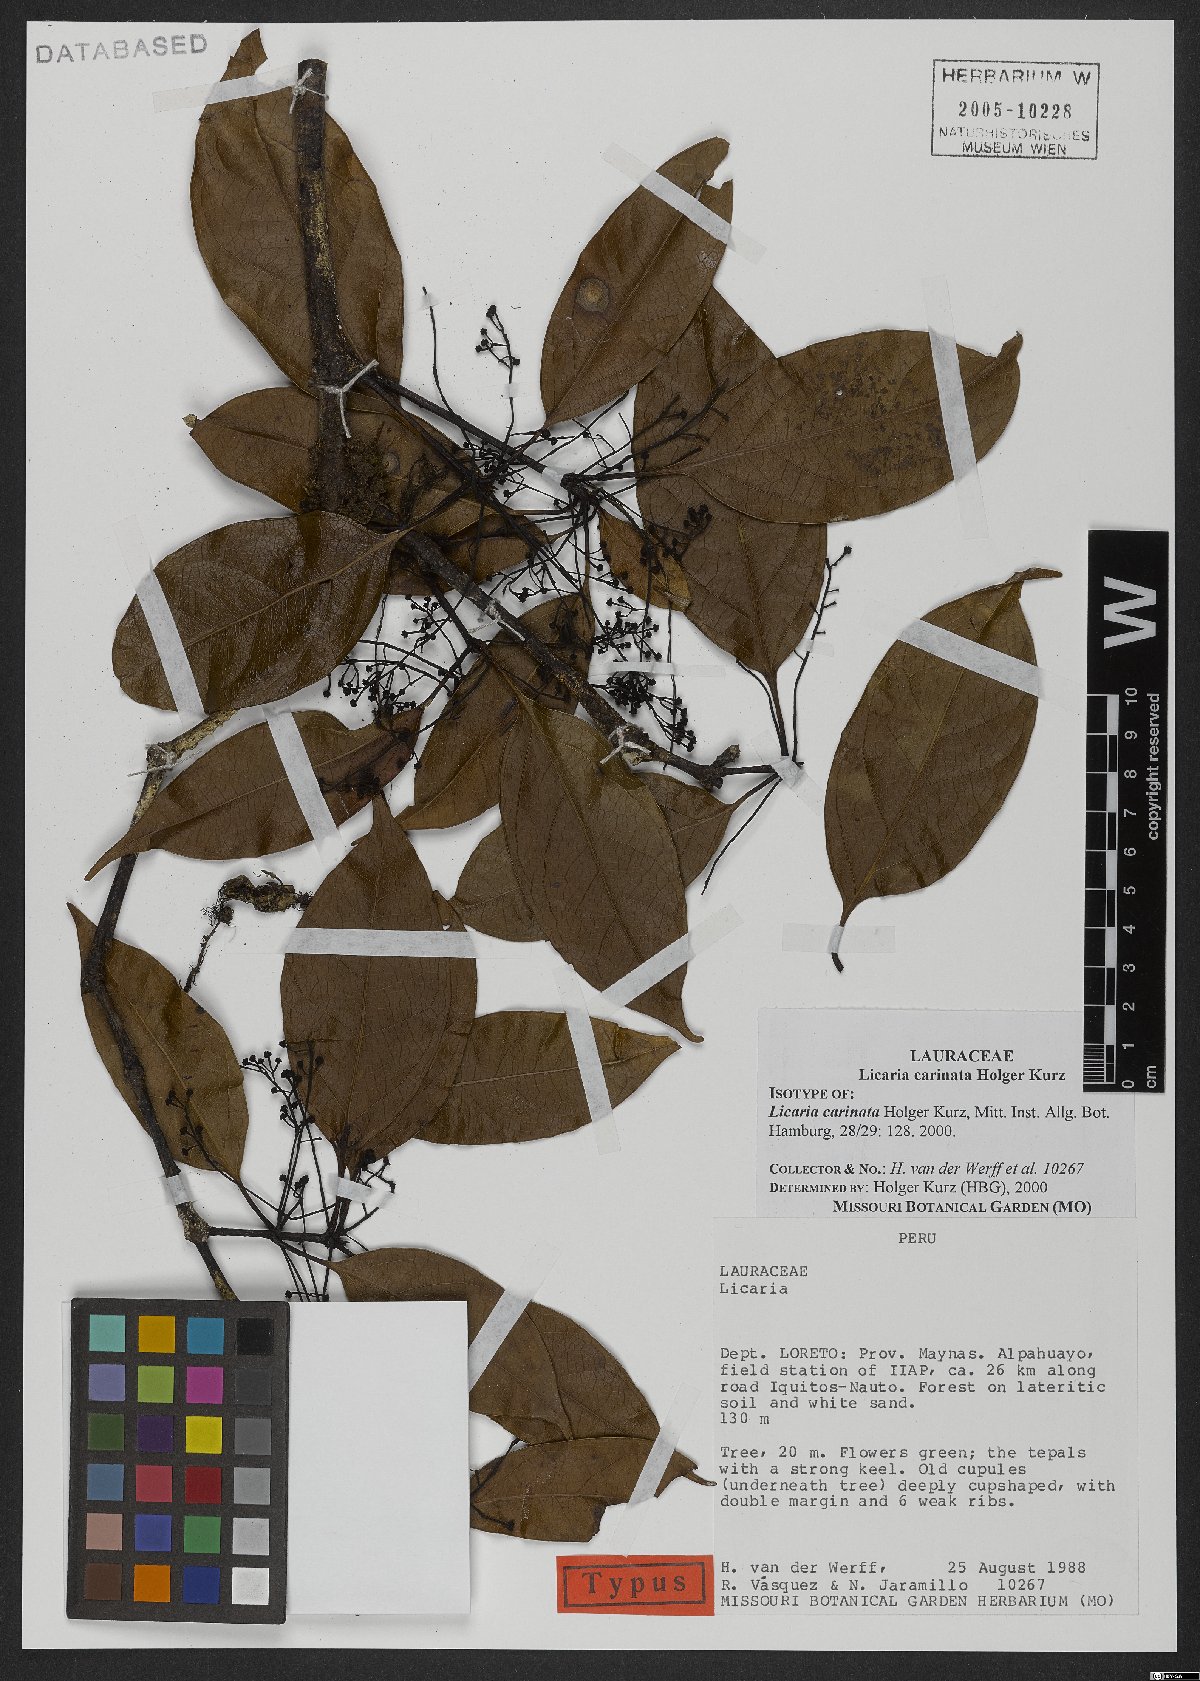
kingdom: Plantae
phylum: Tracheophyta
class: Magnoliopsida
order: Laurales
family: Lauraceae
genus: Licaria
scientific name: Licaria carinata
